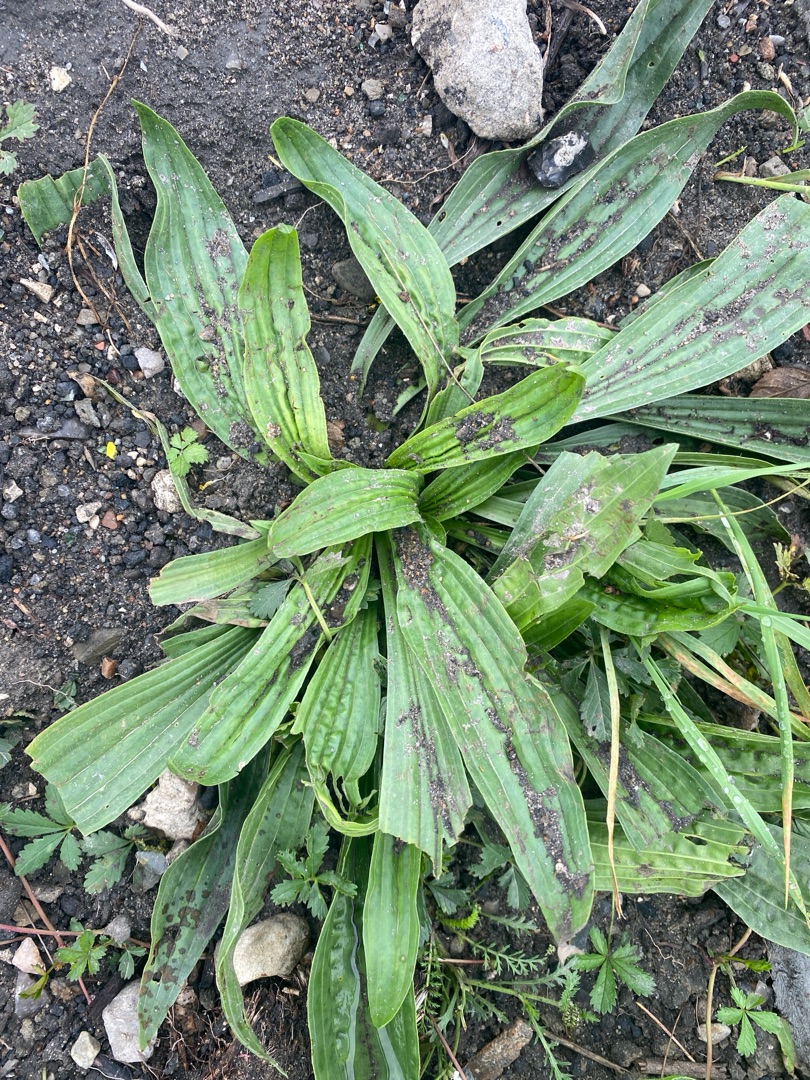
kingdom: Plantae
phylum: Tracheophyta
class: Magnoliopsida
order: Lamiales
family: Plantaginaceae
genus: Plantago
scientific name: Plantago lanceolata
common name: Lancet-vejbred
